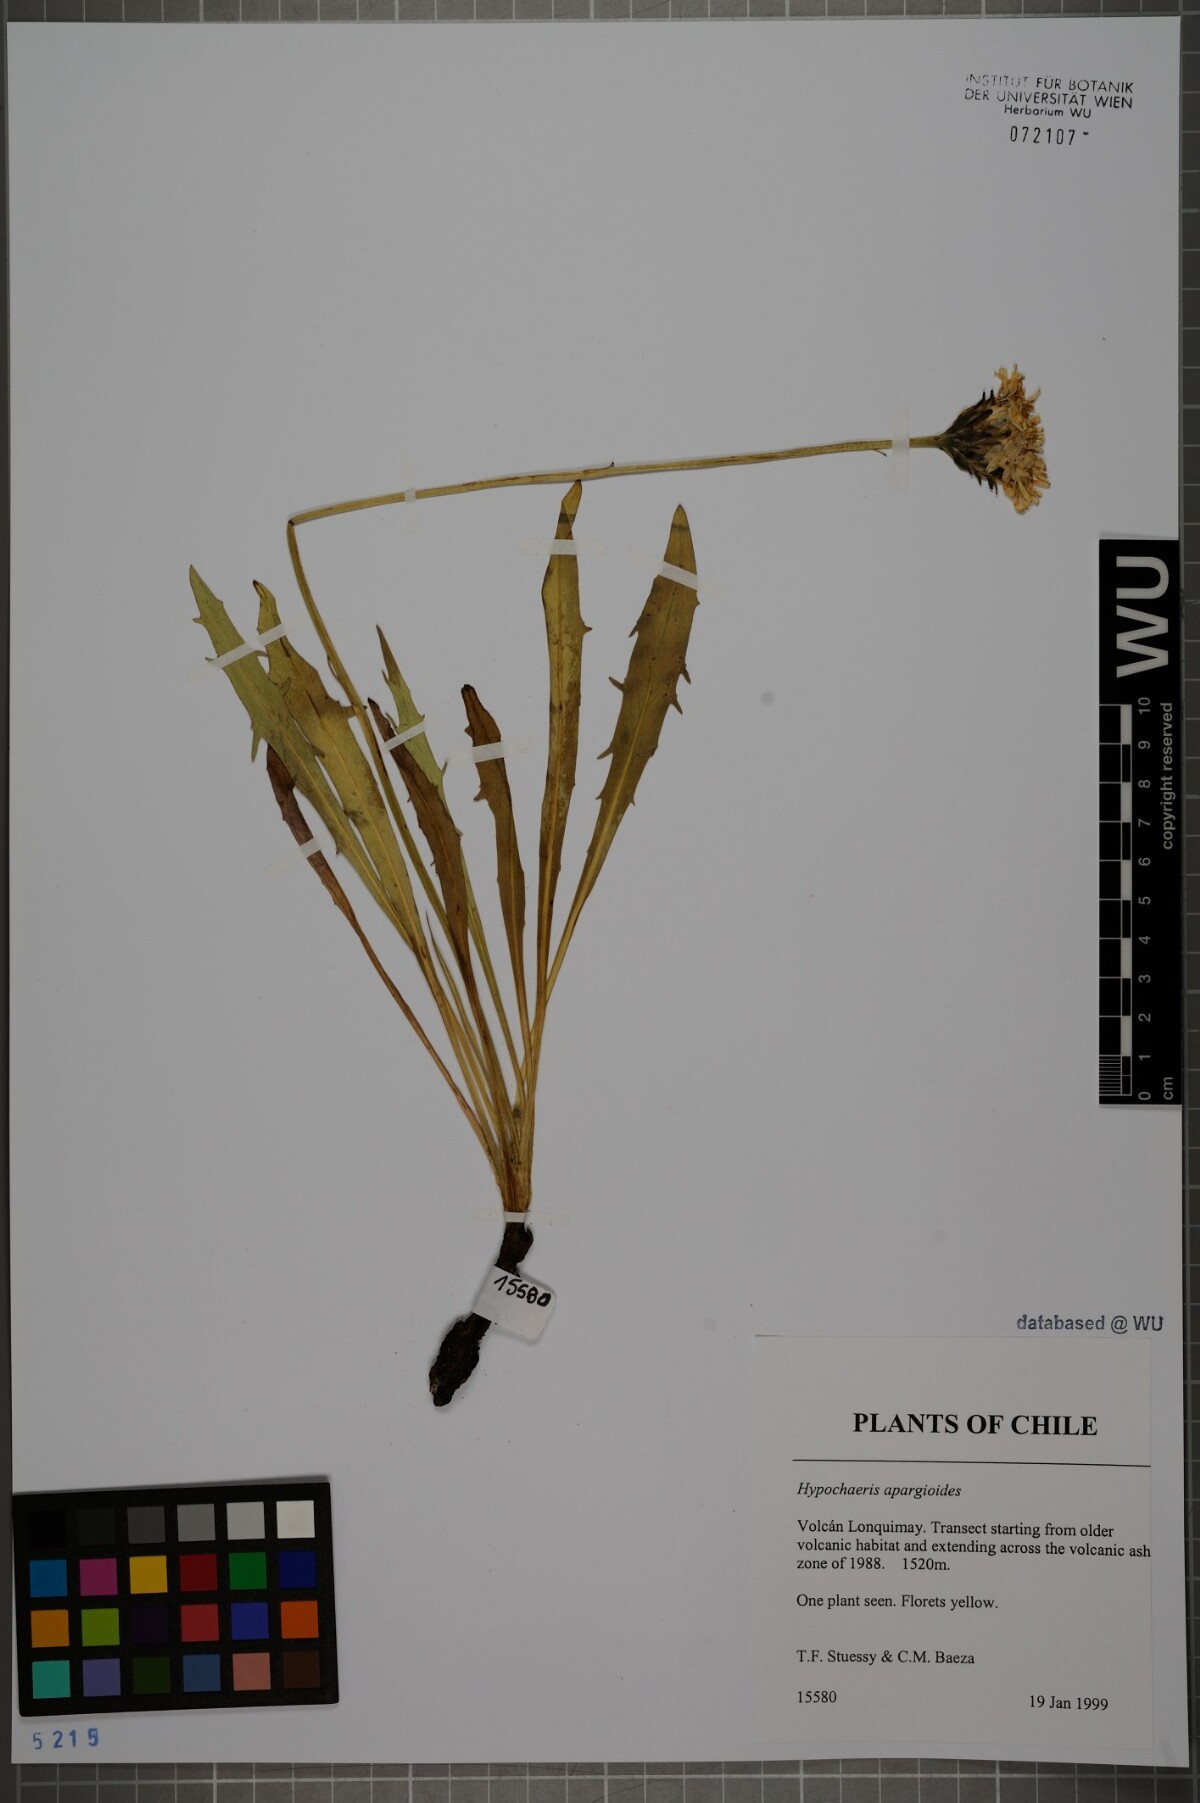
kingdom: Plantae
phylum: Tracheophyta
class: Magnoliopsida
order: Asterales
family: Asteraceae
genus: Hypochaeris
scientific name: Hypochaeris apargioides
